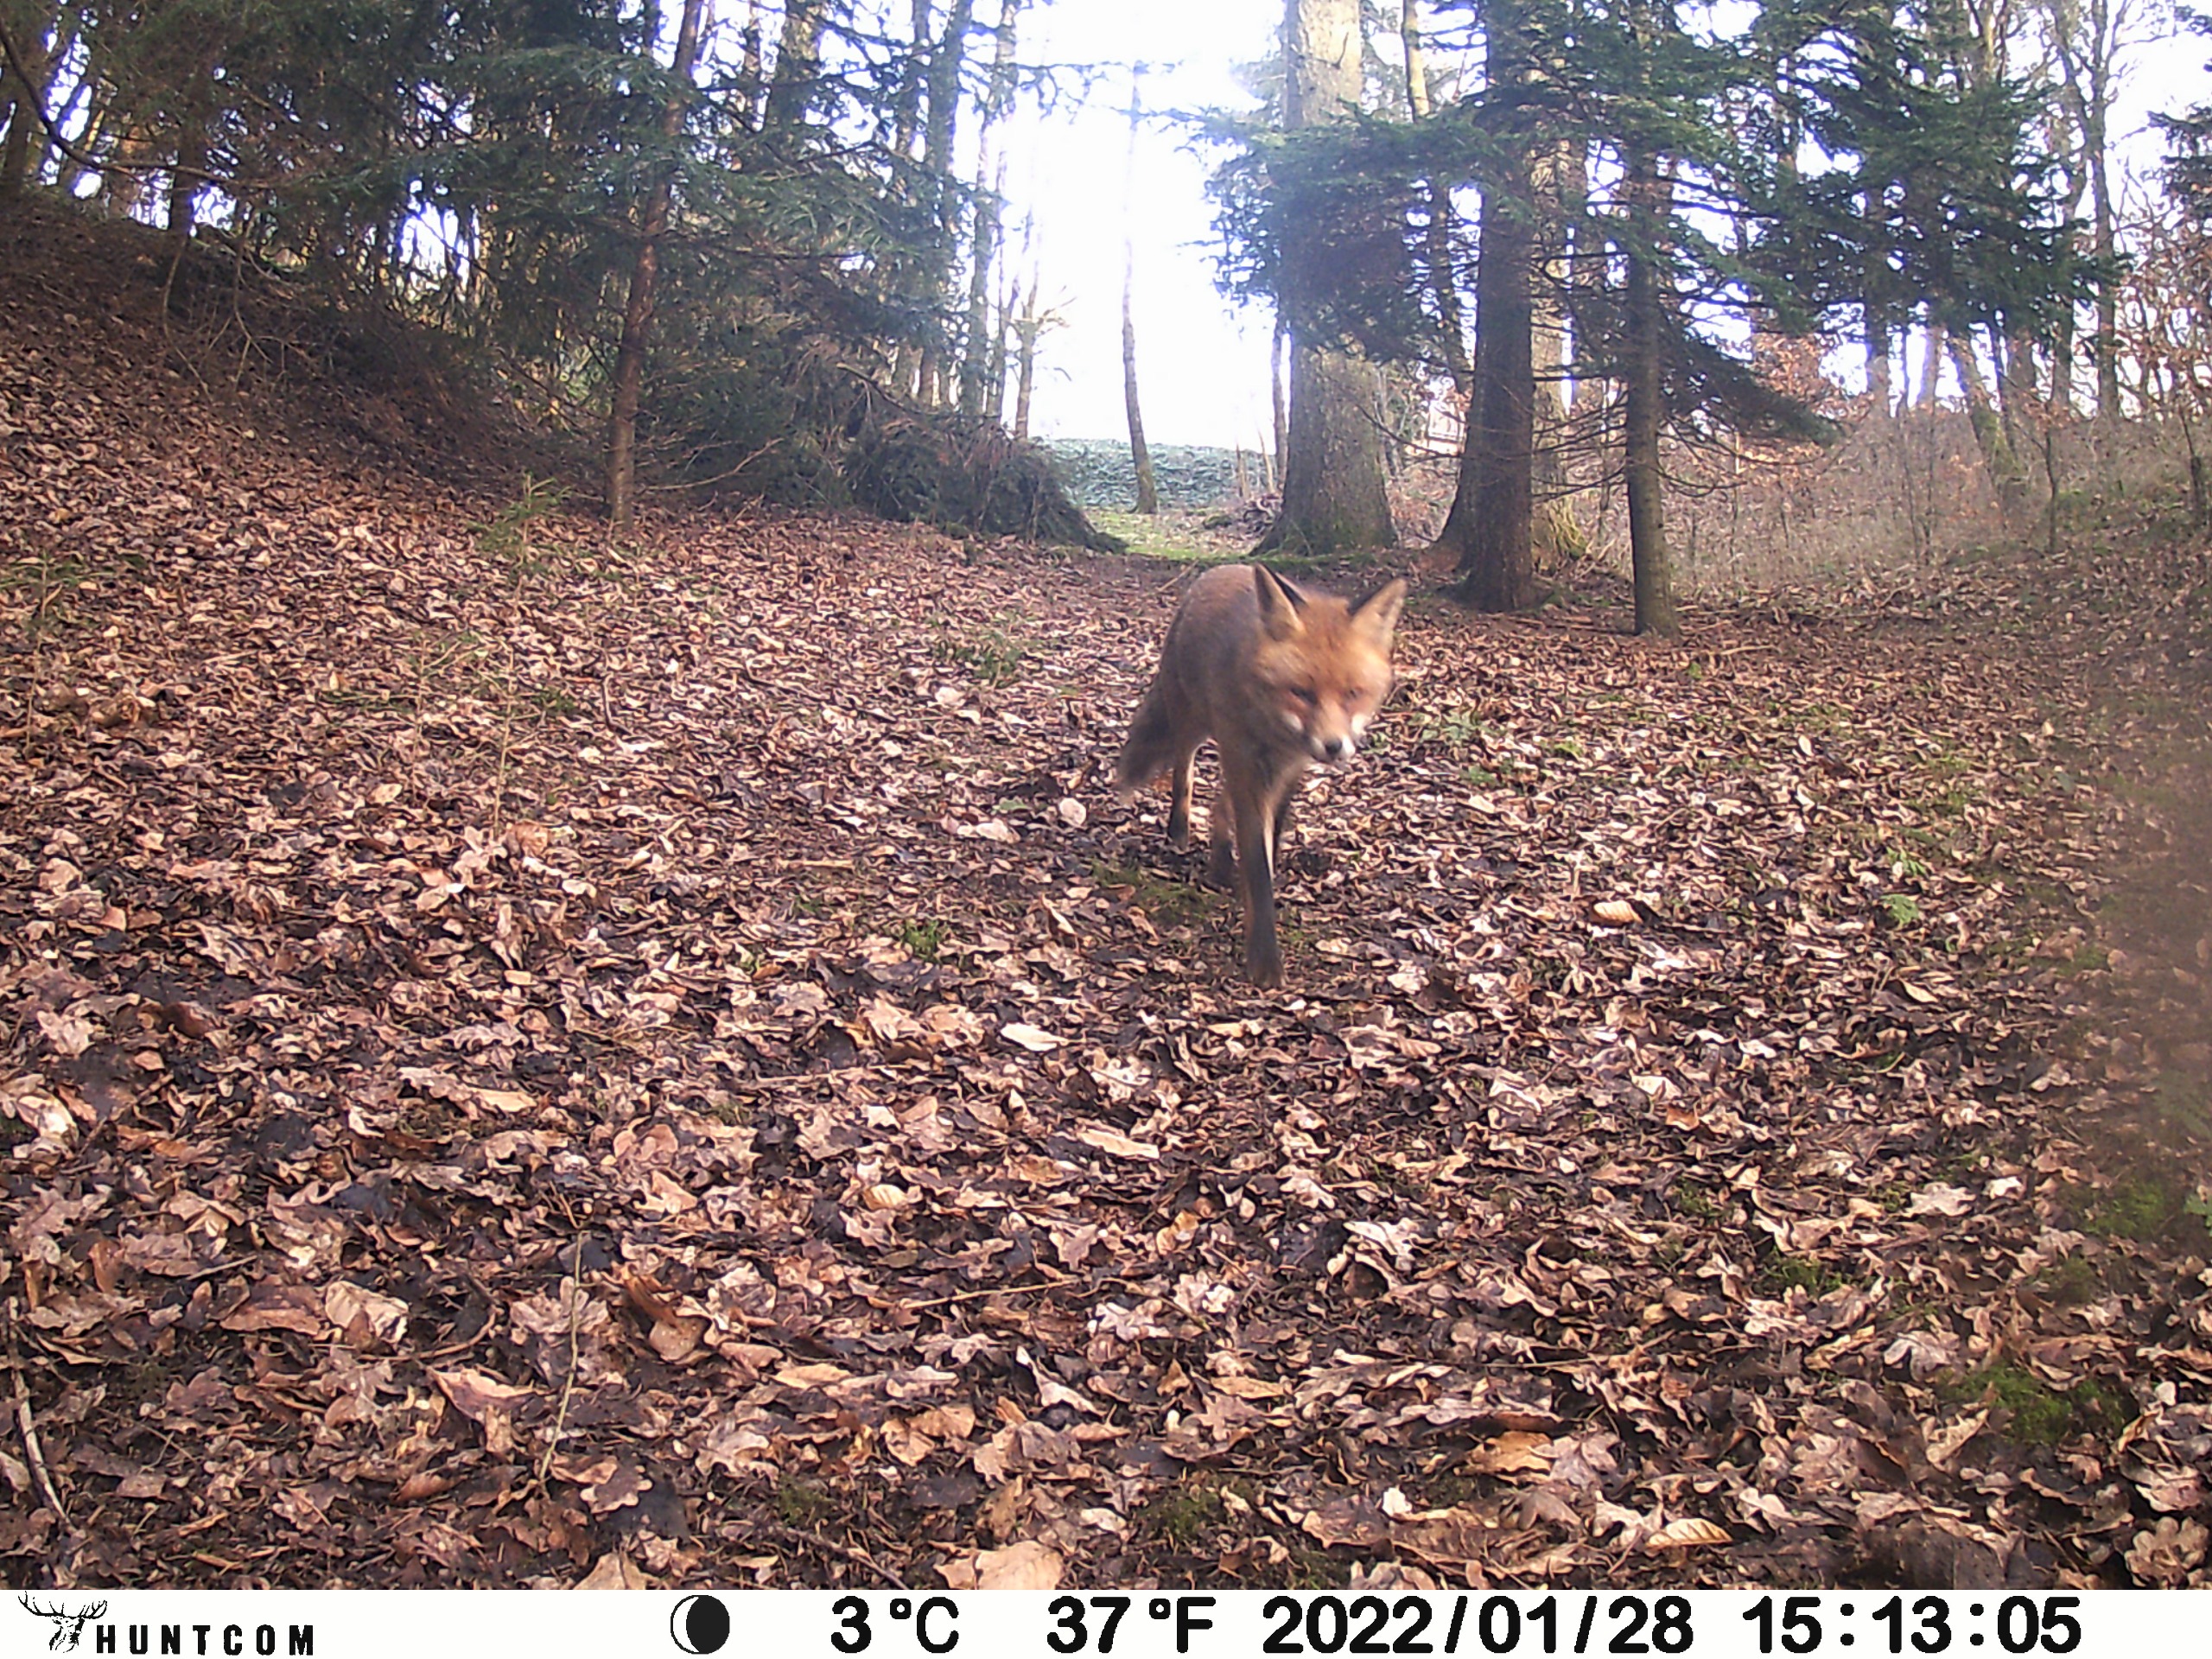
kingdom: Animalia
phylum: Chordata
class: Mammalia
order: Carnivora
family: Canidae
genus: Vulpes
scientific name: Vulpes vulpes
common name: Ræv
